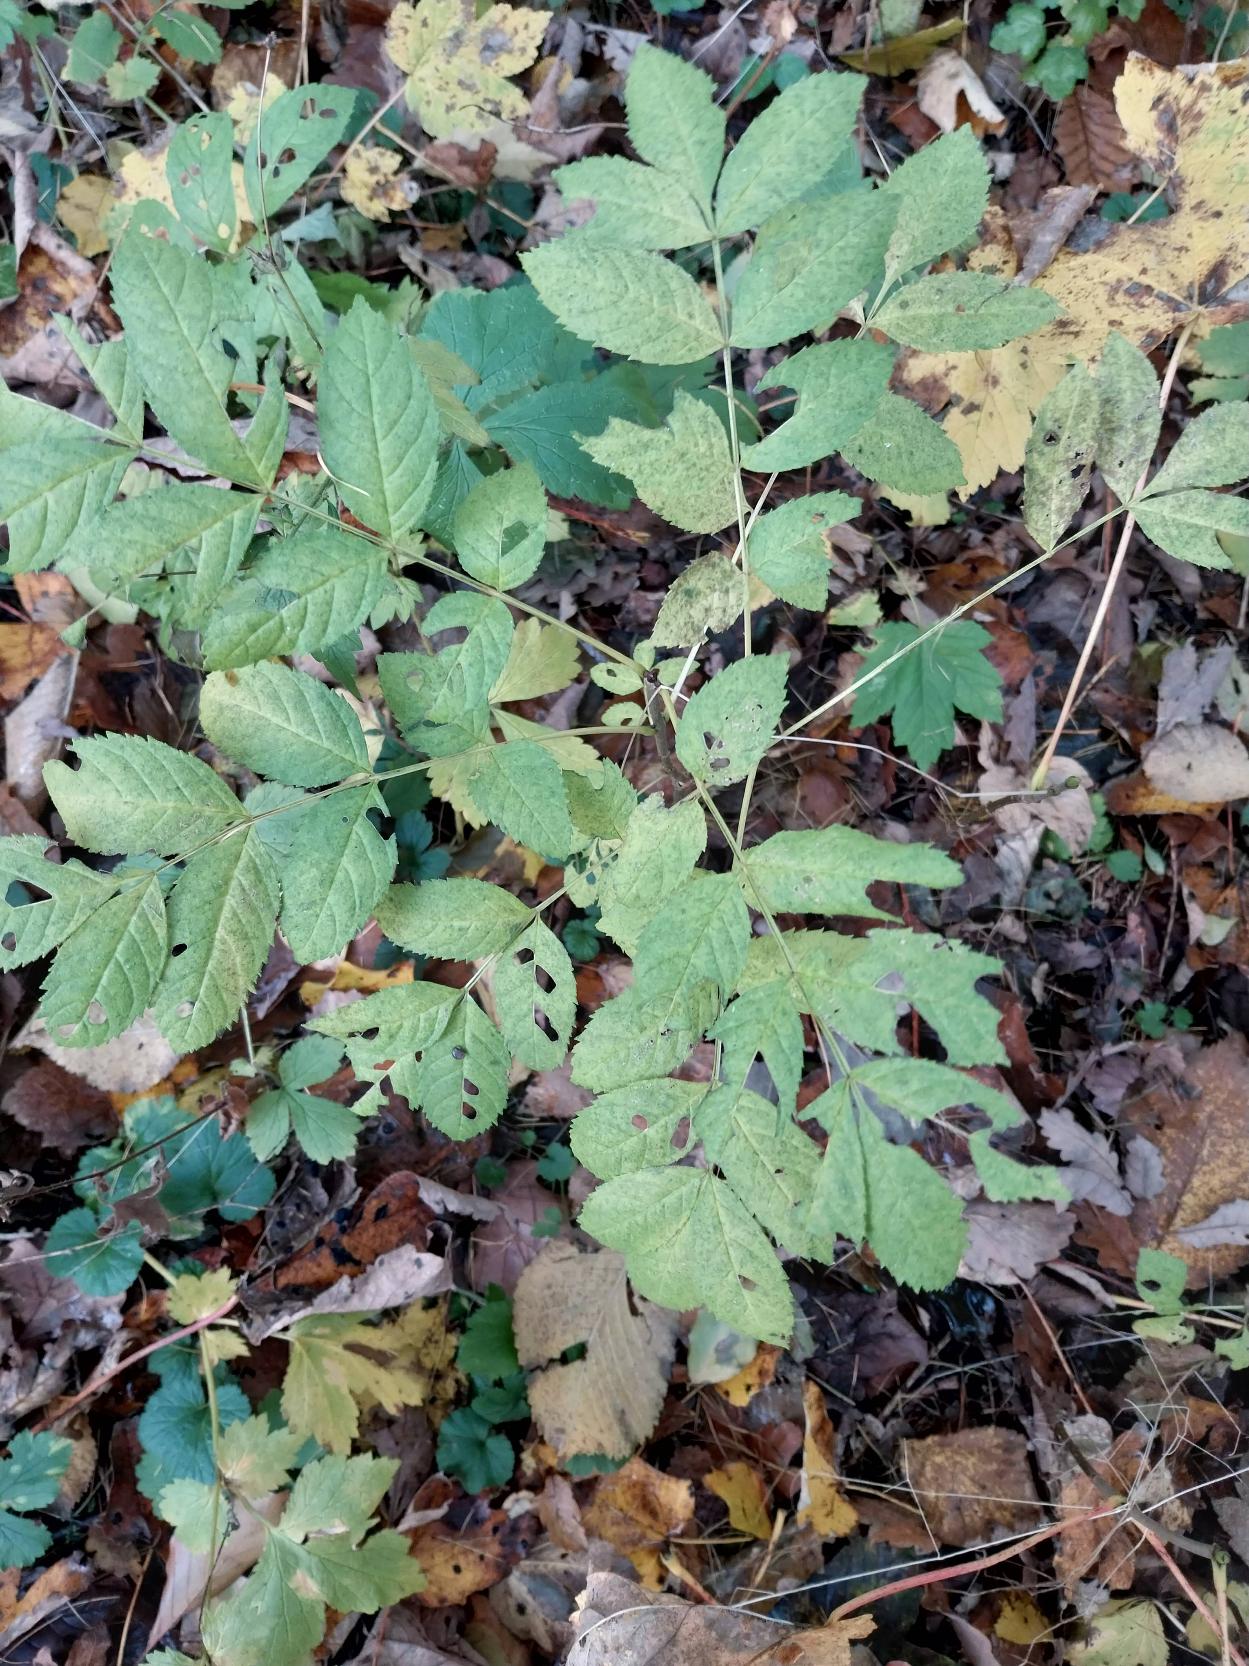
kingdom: Plantae
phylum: Tracheophyta
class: Magnoliopsida
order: Lamiales
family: Oleaceae
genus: Fraxinus
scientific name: Fraxinus excelsior
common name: Ask
